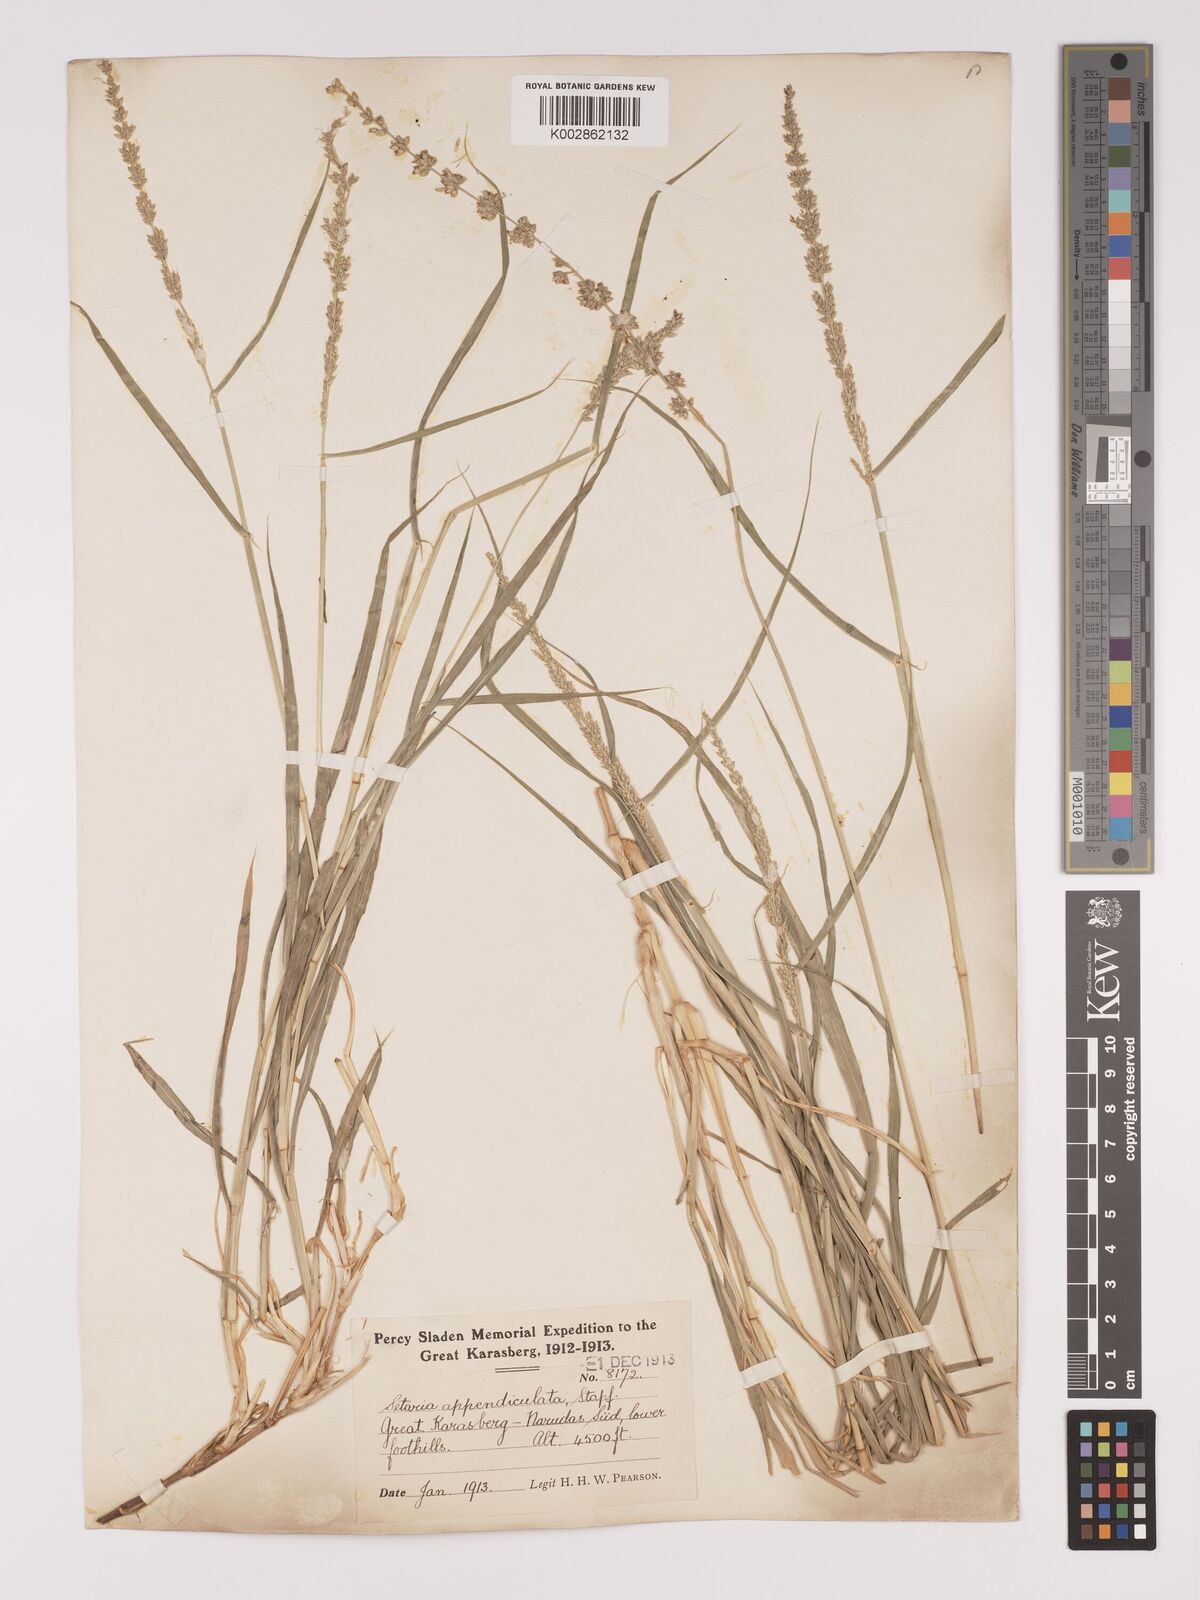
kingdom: Plantae
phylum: Tracheophyta
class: Liliopsida
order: Poales
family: Poaceae
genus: Setaria
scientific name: Setaria appendiculata
